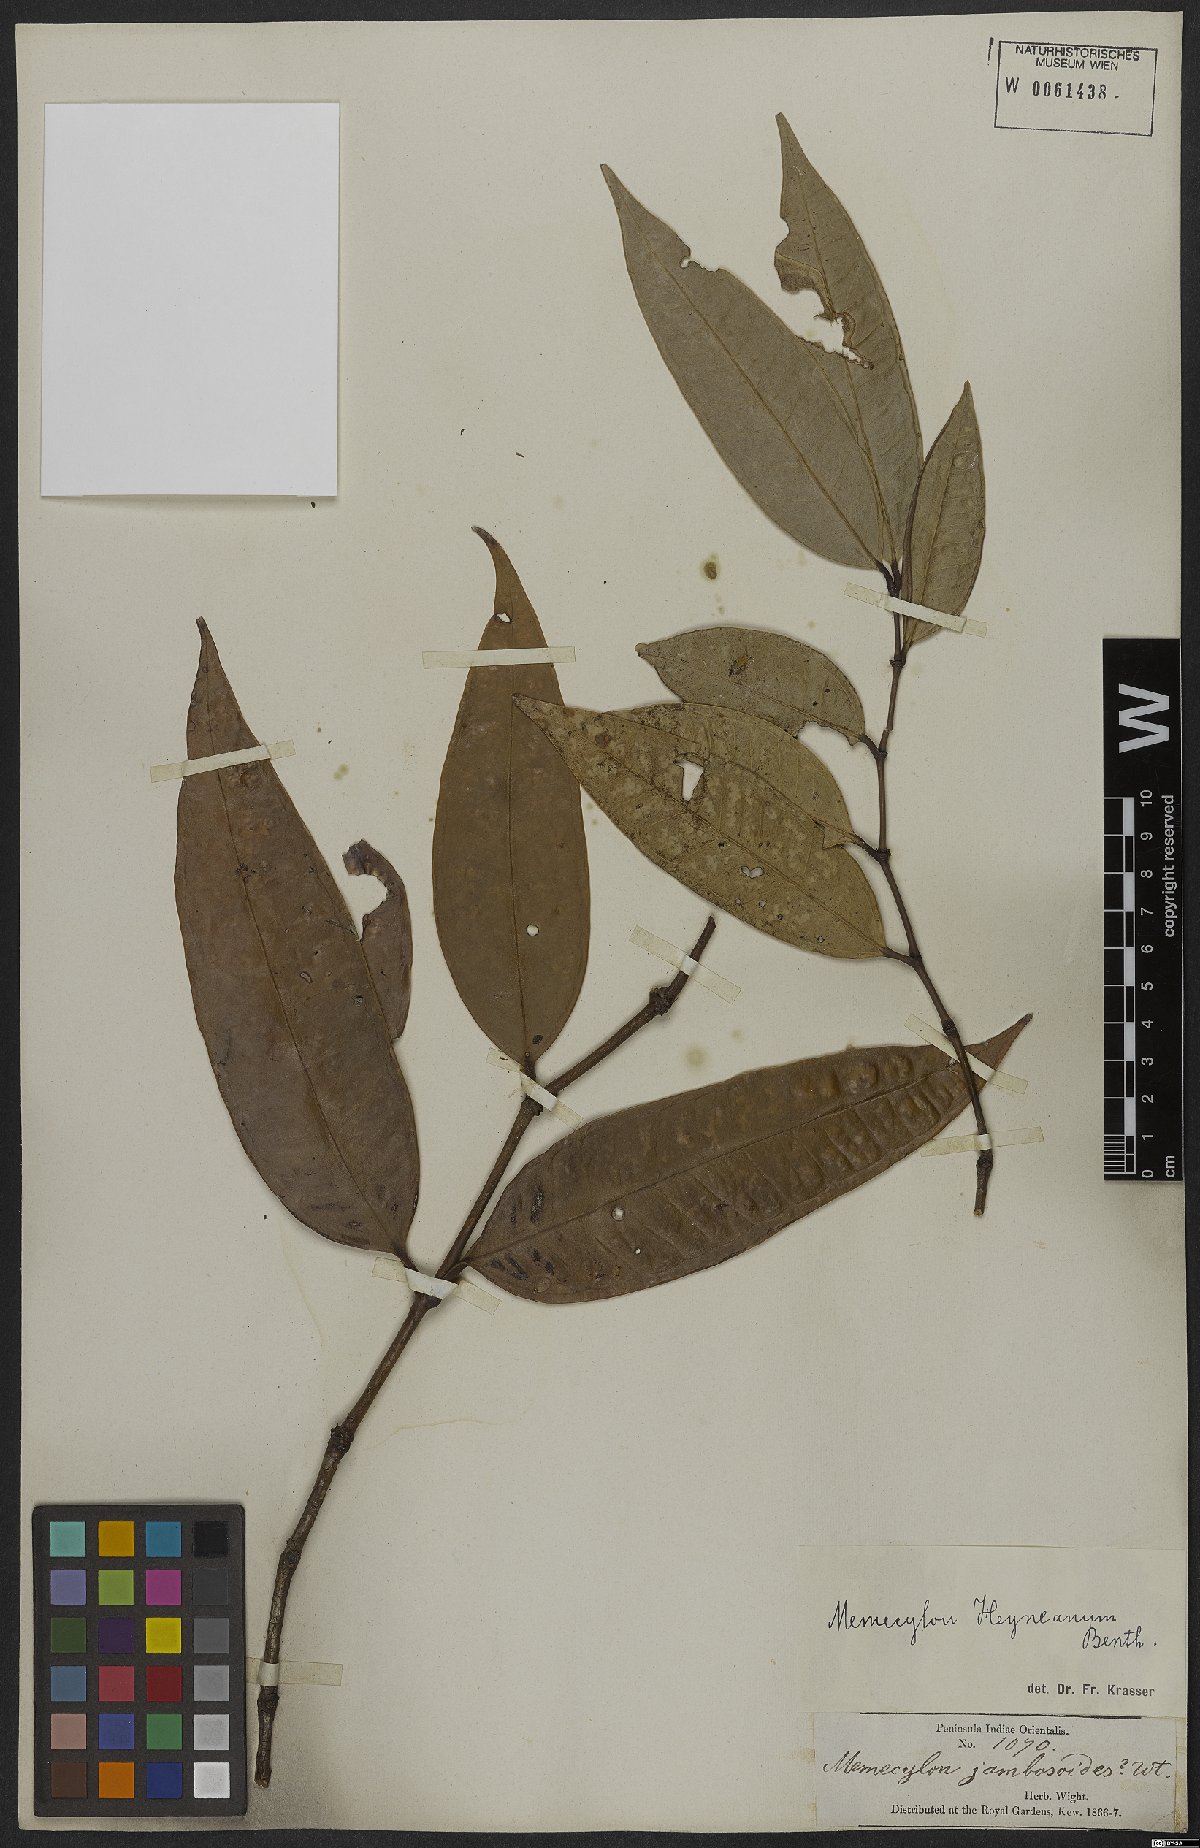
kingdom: Plantae
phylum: Tracheophyta
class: Magnoliopsida
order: Myrtales
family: Melastomataceae
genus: Memecylon
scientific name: Memecylon heyneanum
